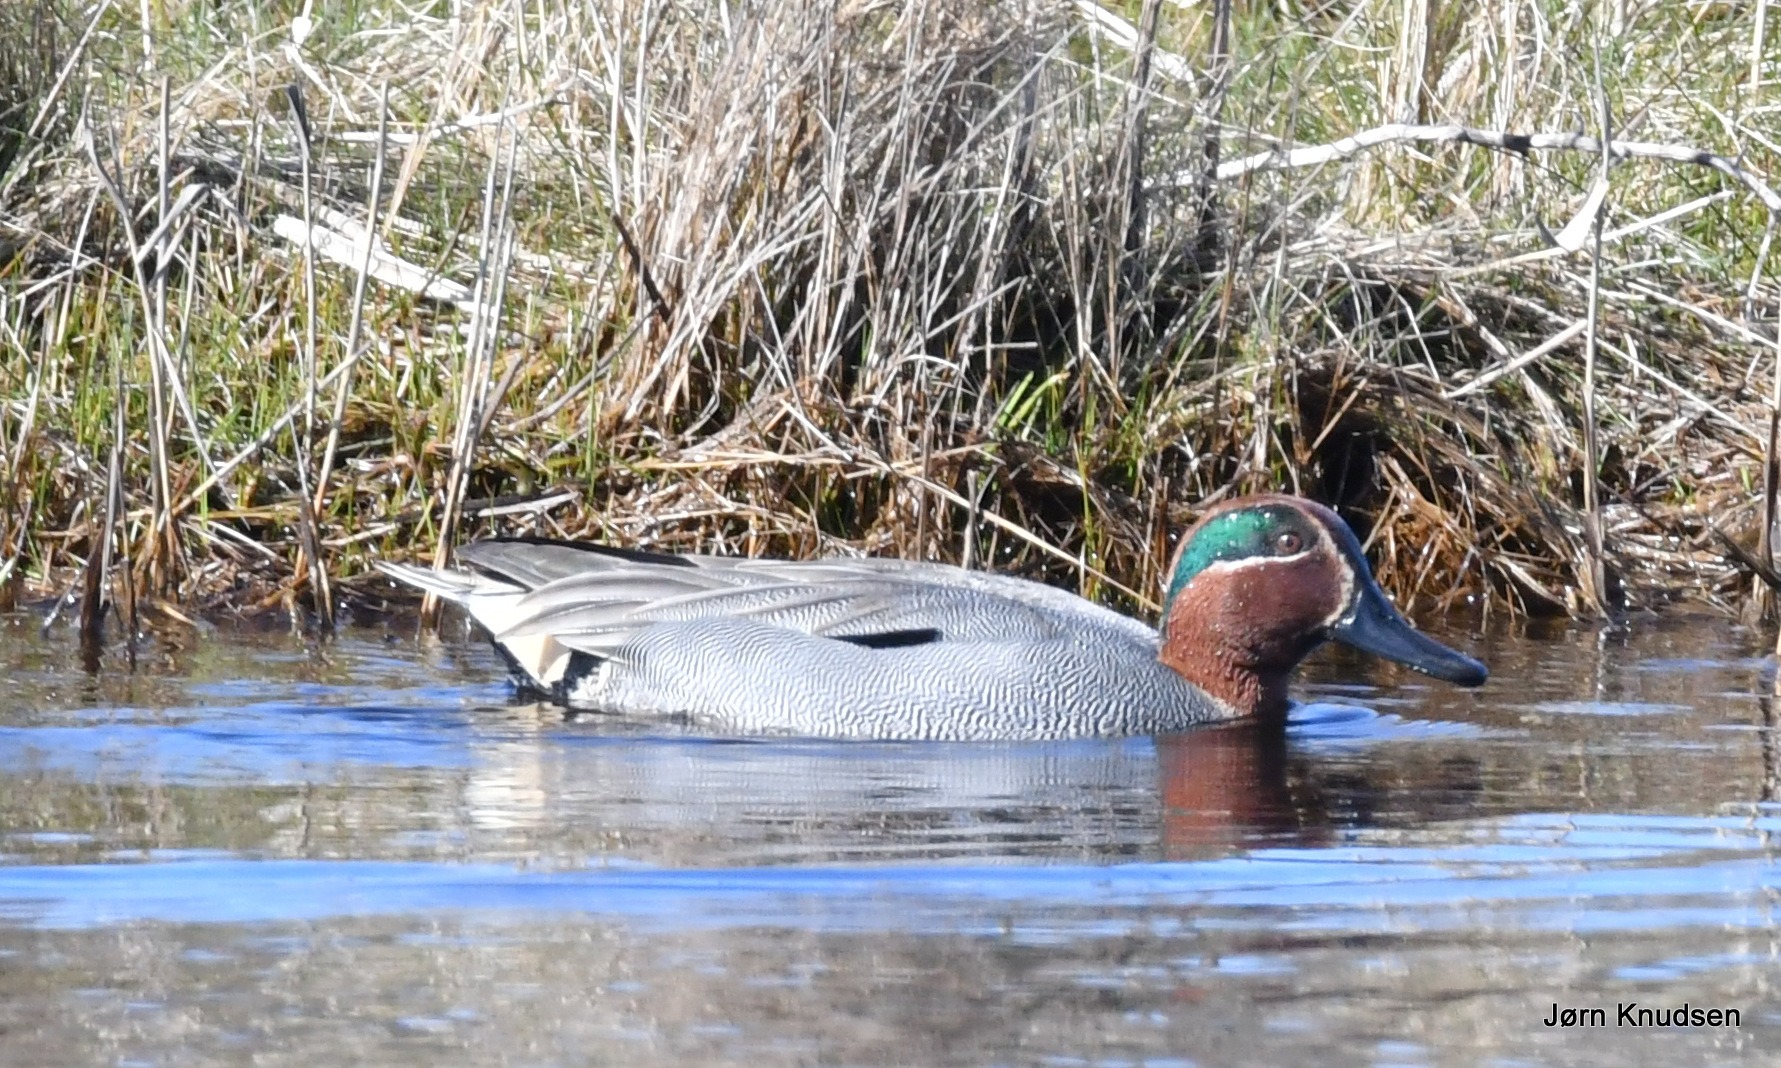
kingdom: Animalia
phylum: Chordata
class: Aves
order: Anseriformes
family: Anatidae
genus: Anas
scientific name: Anas crecca
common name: Krikand
